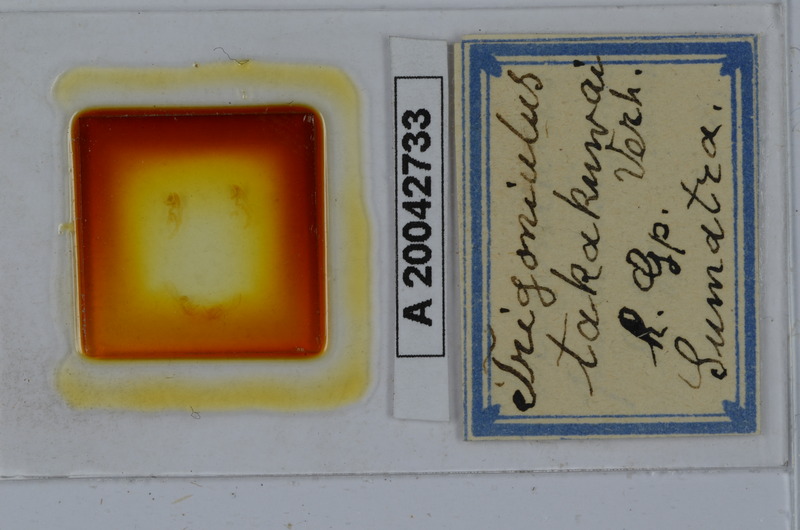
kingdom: Animalia
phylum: Arthropoda
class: Diplopoda
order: Spirobolida
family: Pachybolidae
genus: Trigoniulus
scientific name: Trigoniulus corallinus
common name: Millipede
